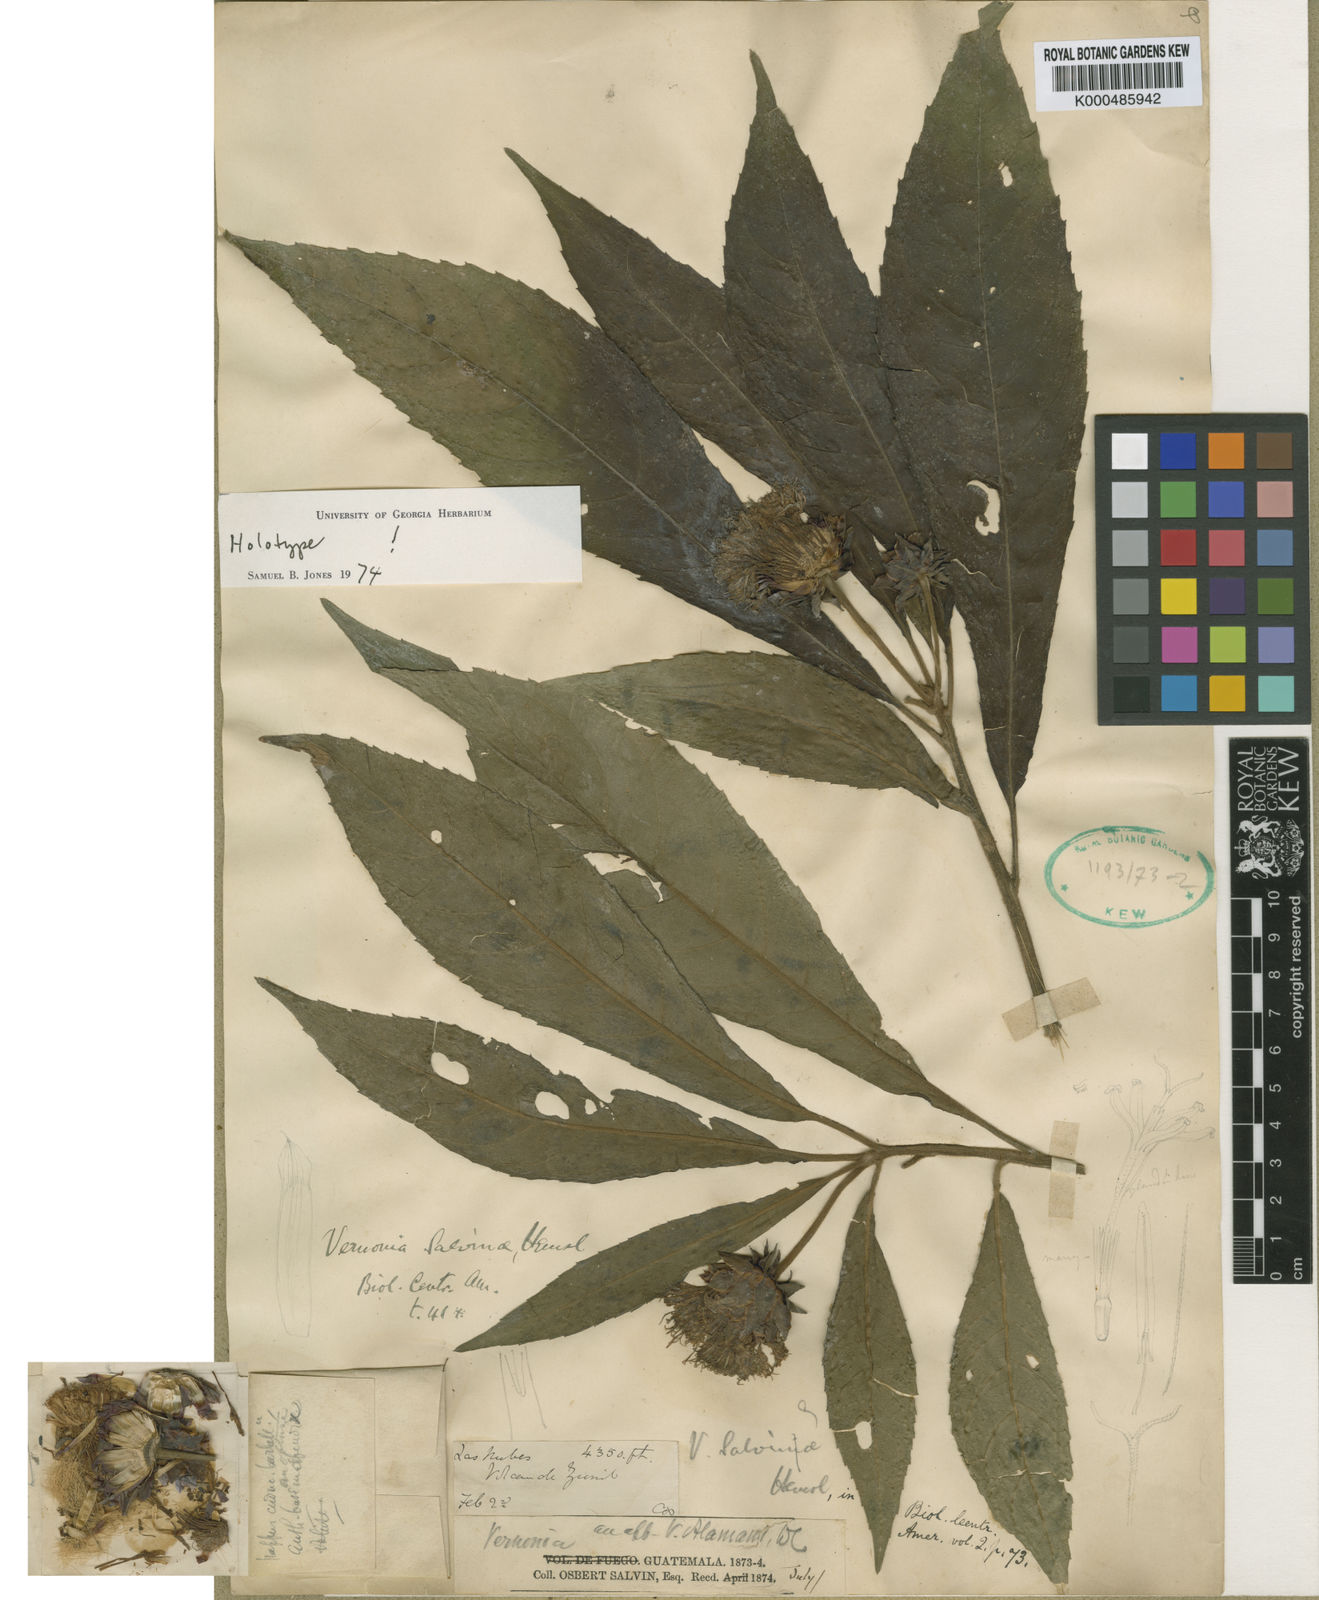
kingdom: Plantae
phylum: Tracheophyta
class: Magnoliopsida
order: Asterales
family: Asteraceae
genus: Lepidonia
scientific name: Lepidonia salvinae
